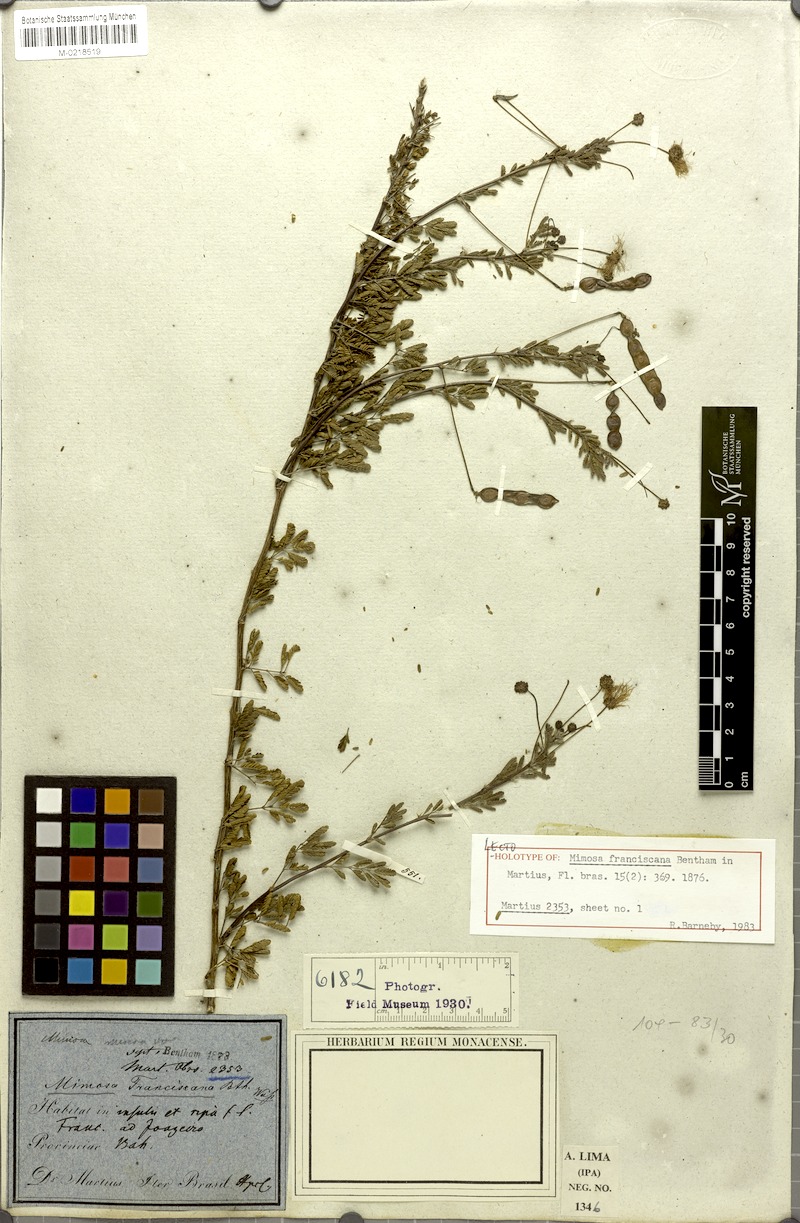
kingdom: Plantae
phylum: Tracheophyta
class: Magnoliopsida
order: Fabales
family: Fabaceae
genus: Mimosa
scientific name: Mimosa misera
